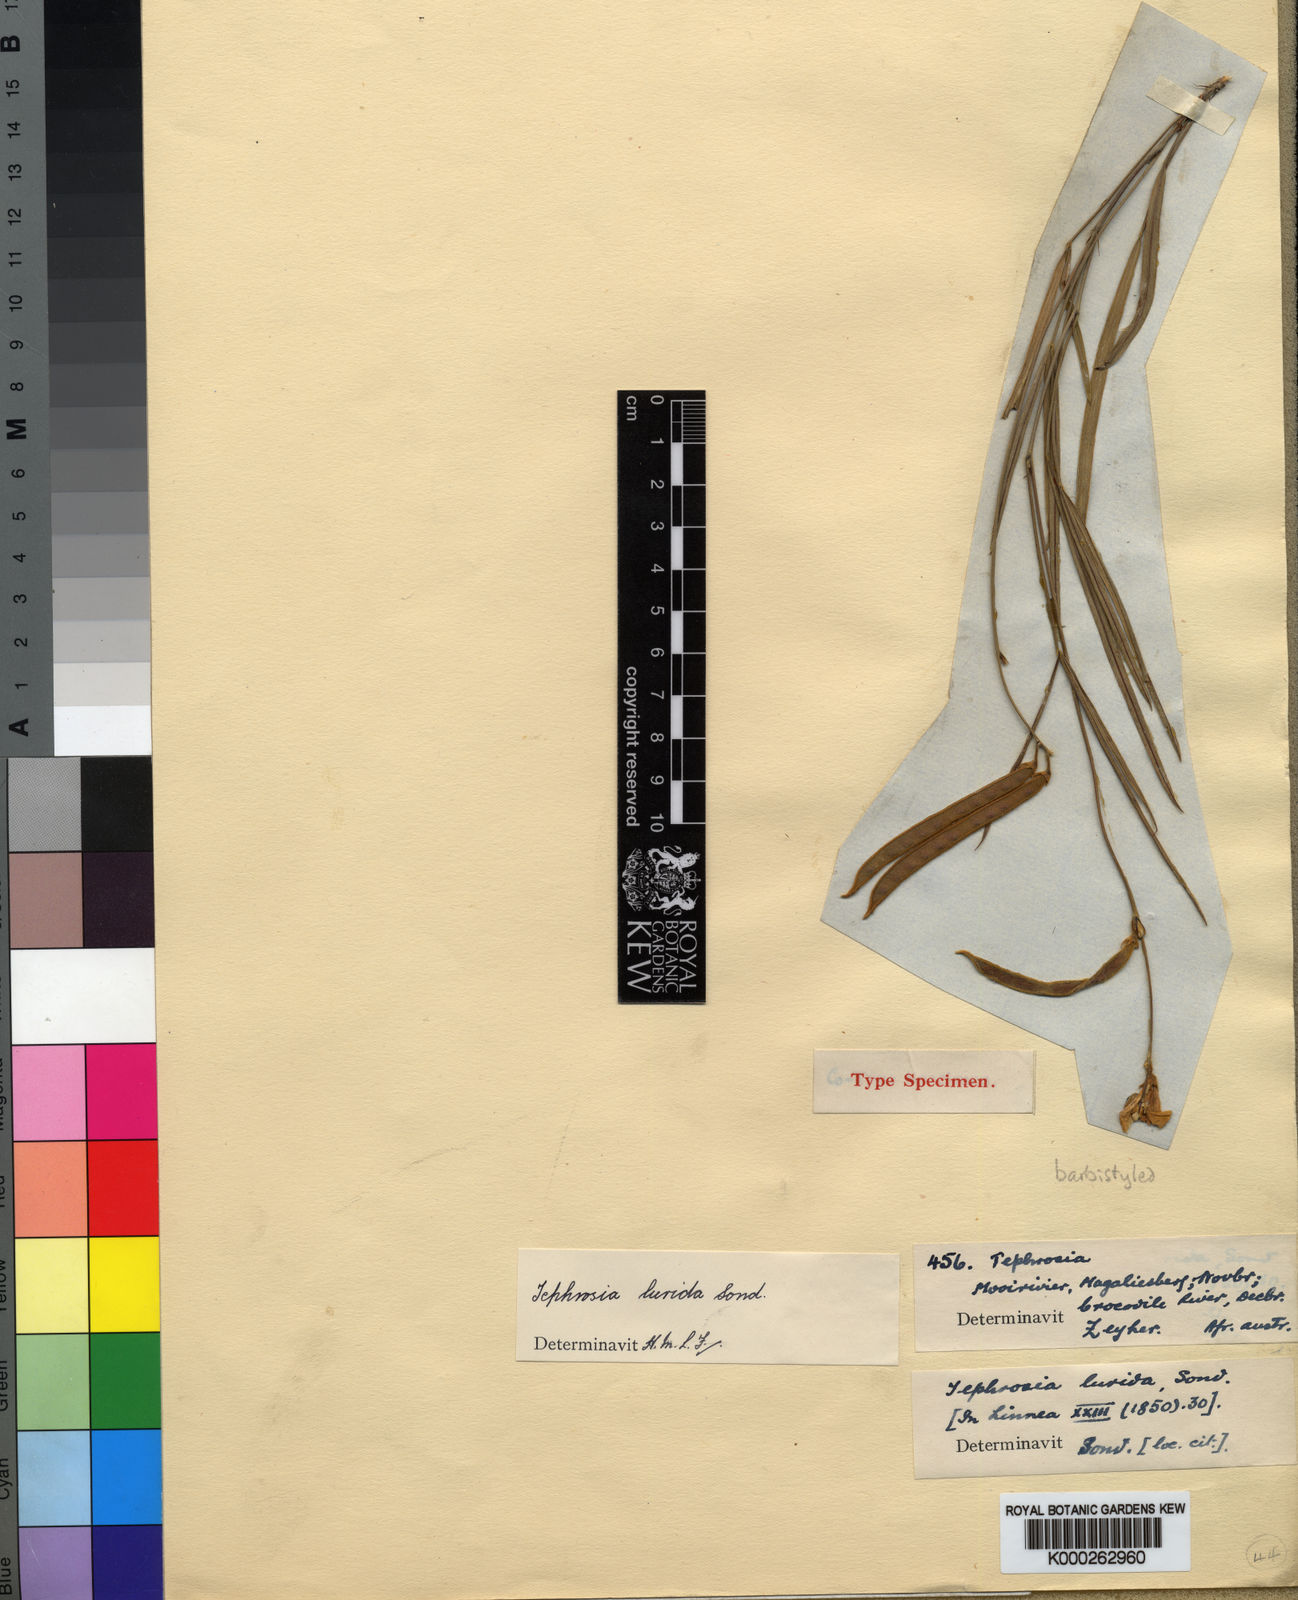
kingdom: Plantae
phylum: Tracheophyta
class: Magnoliopsida
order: Fabales
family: Fabaceae
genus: Tephrosia
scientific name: Tephrosia longipes
